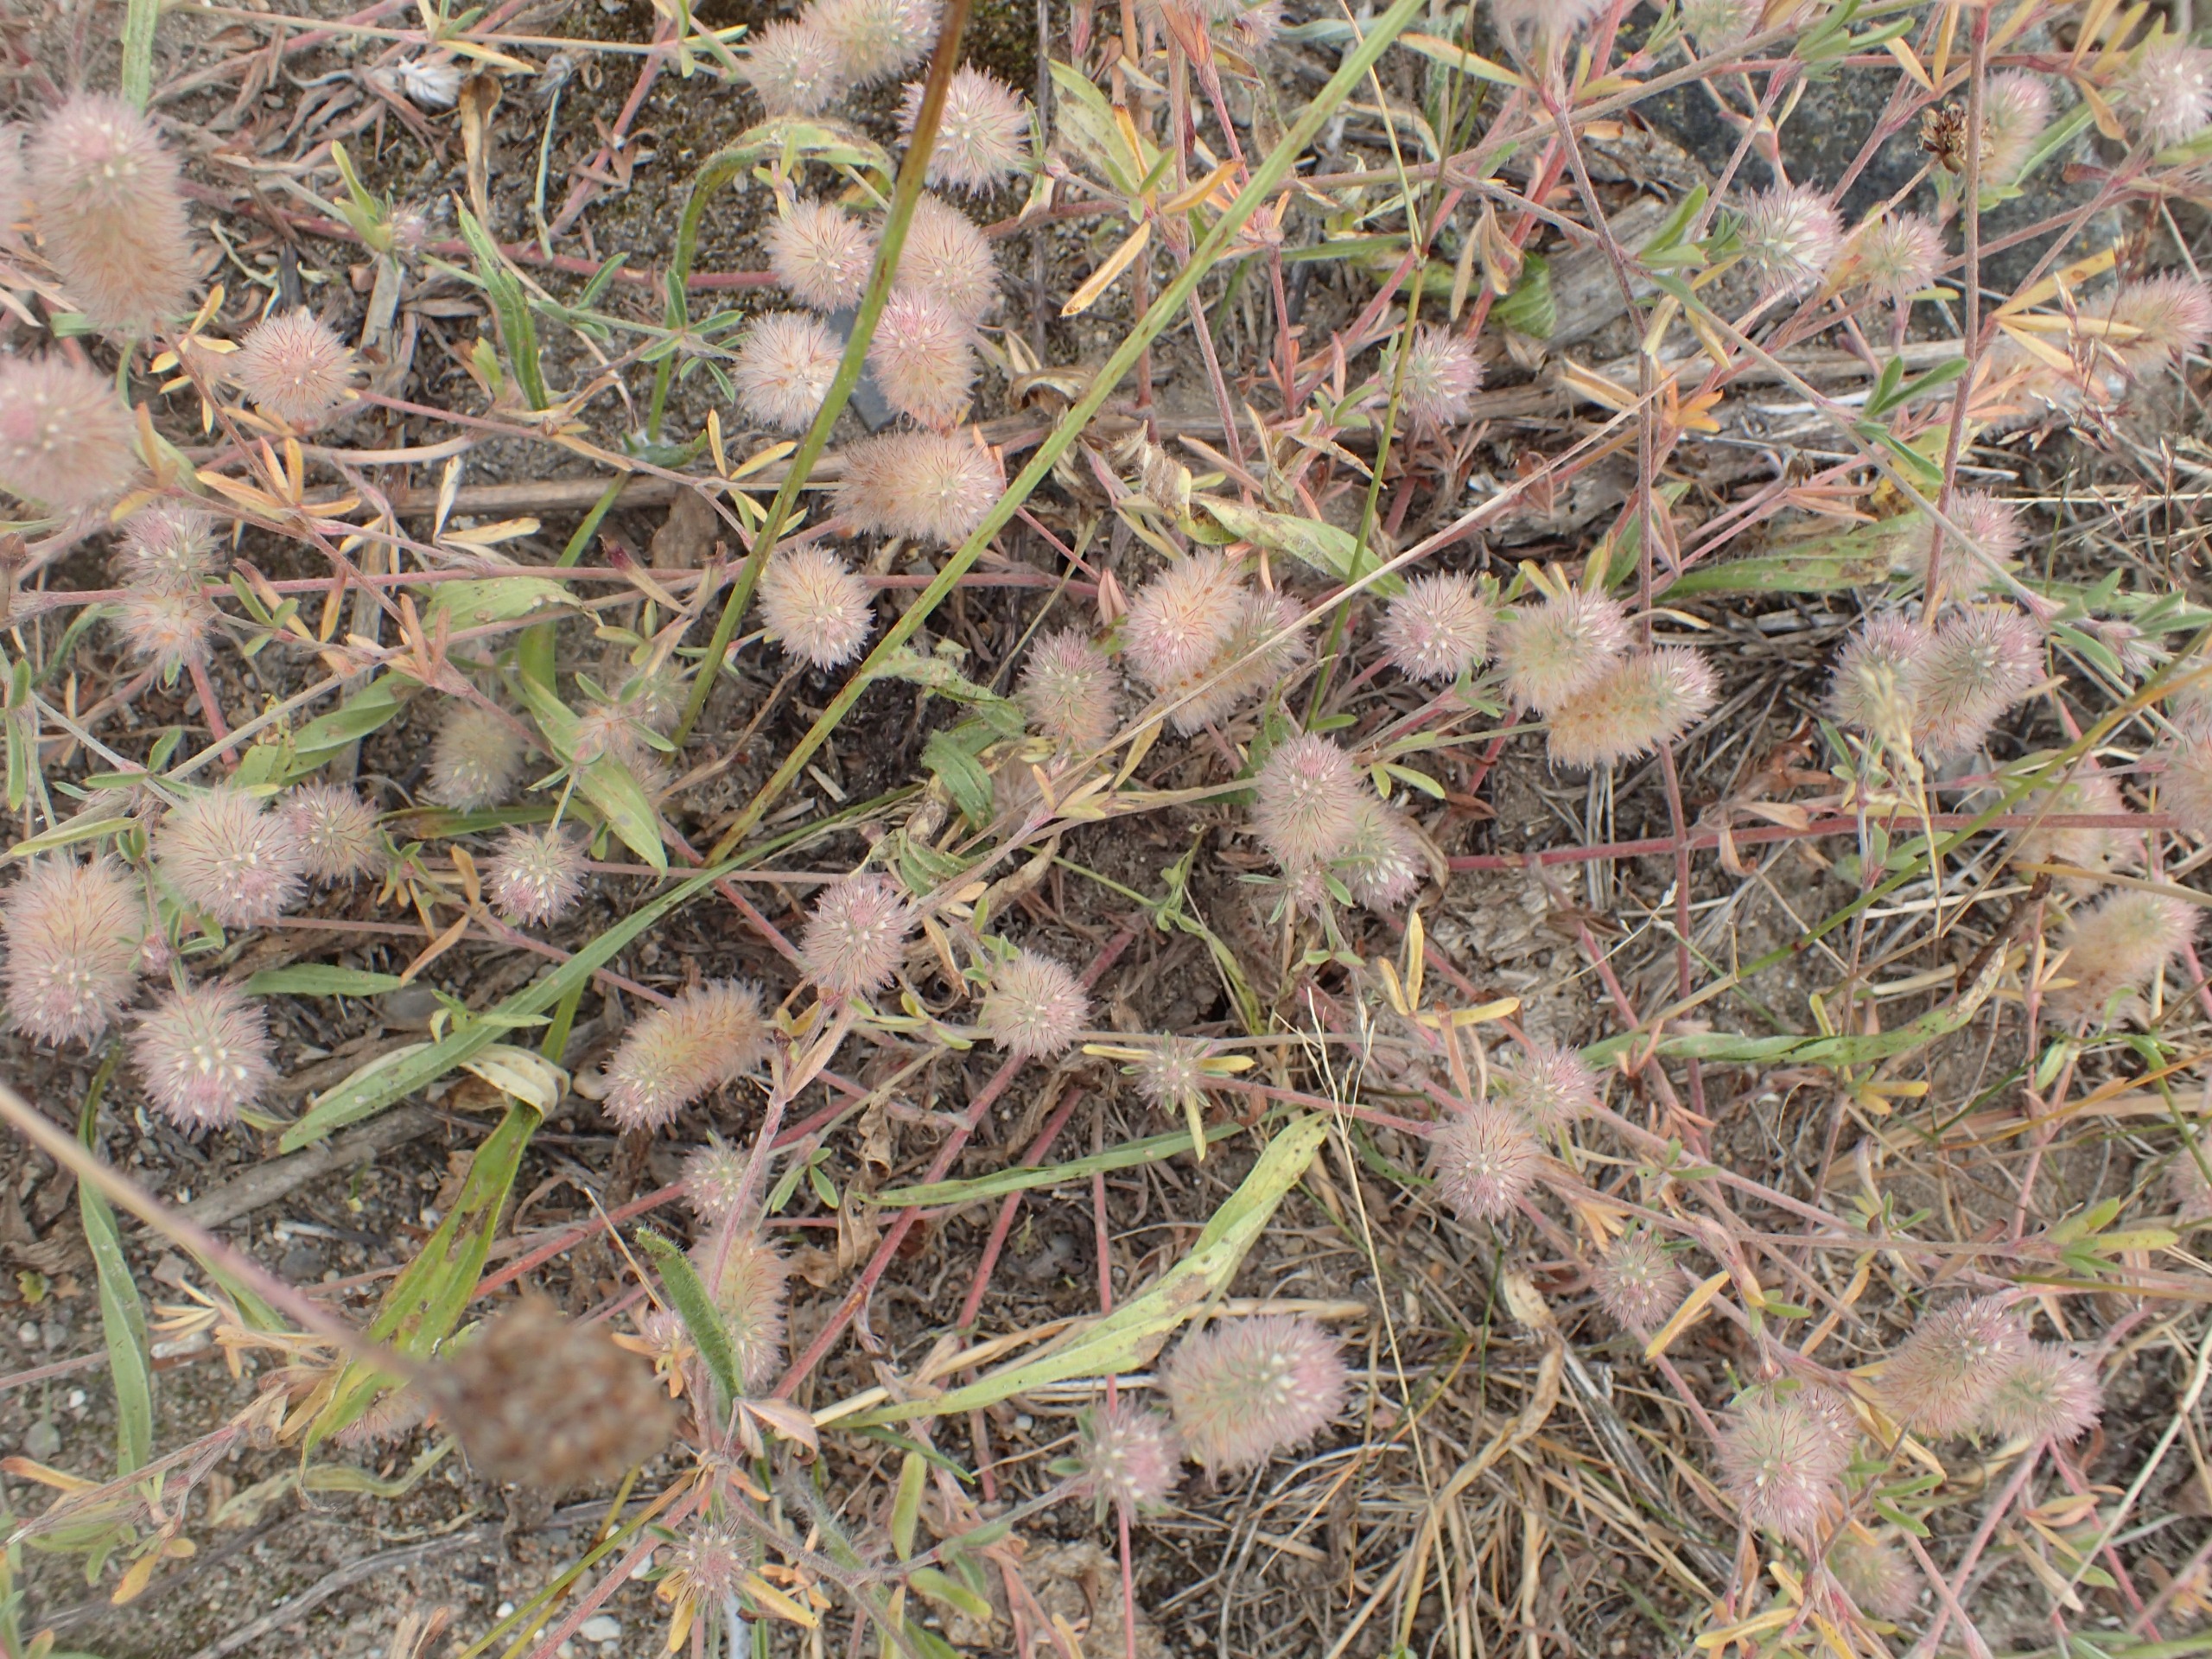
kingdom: Plantae
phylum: Tracheophyta
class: Magnoliopsida
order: Fabales
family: Fabaceae
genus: Trifolium
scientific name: Trifolium arvense
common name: Hare-kløver
